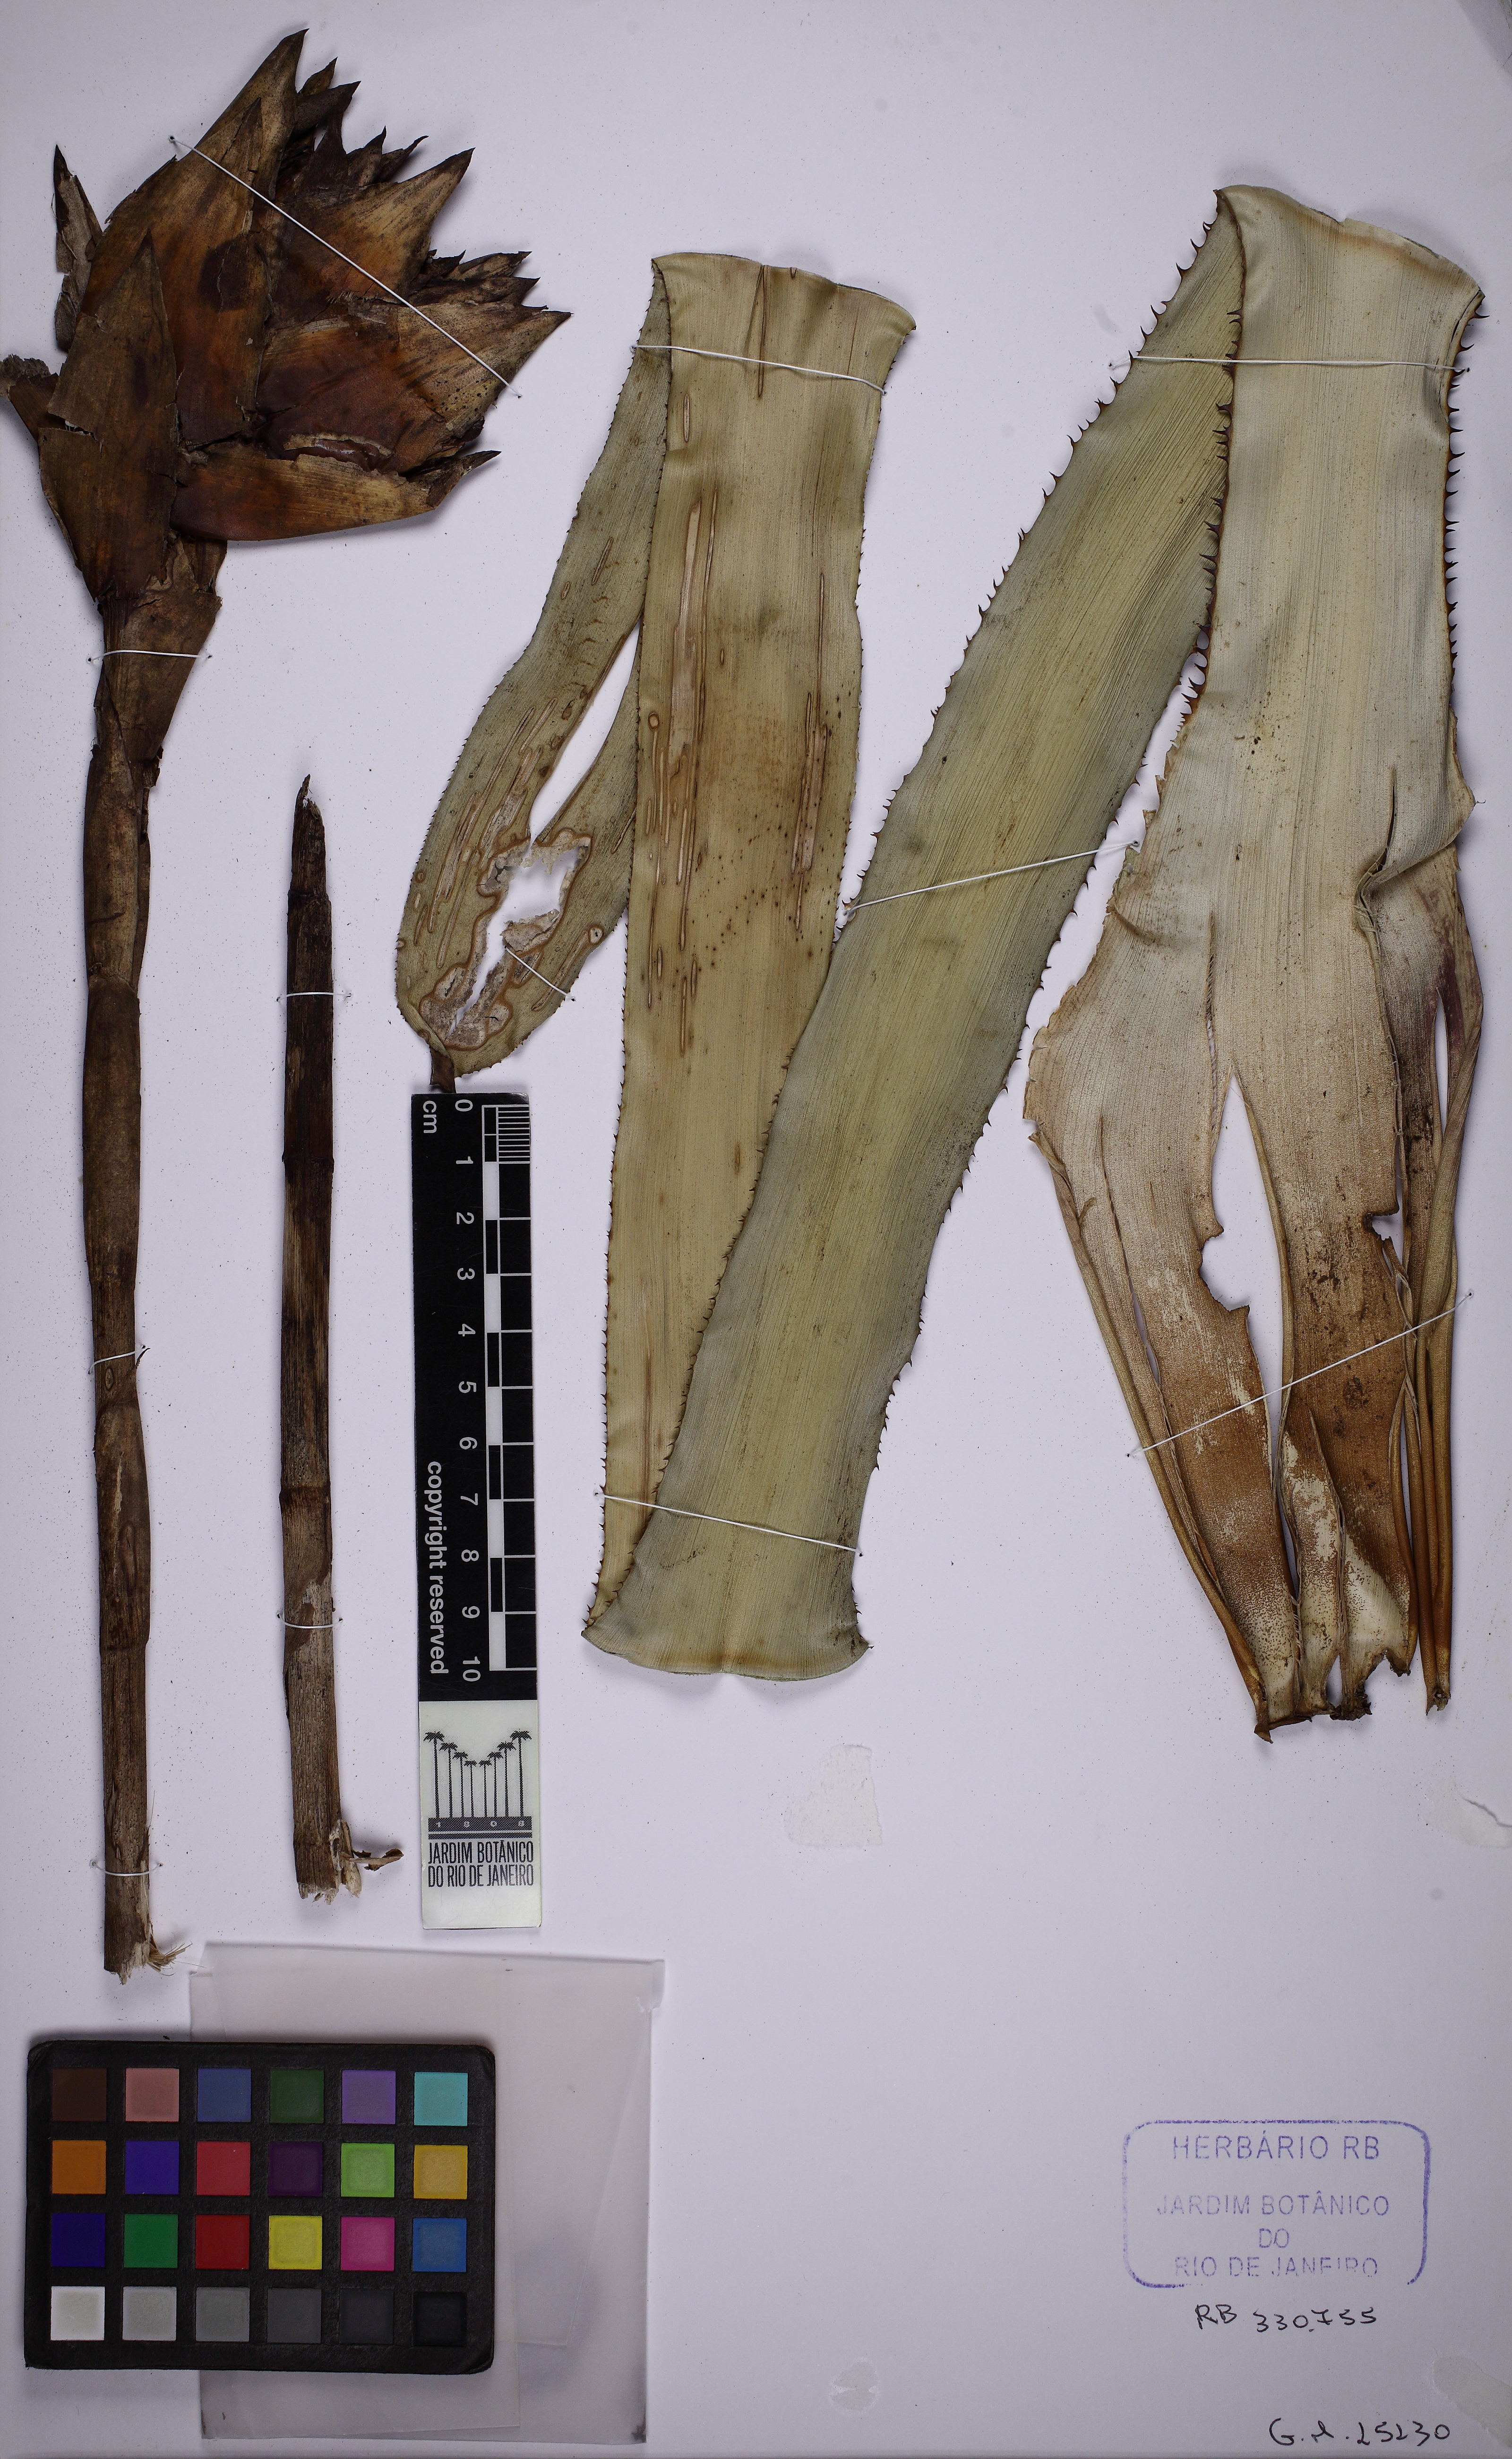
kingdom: Plantae
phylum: Tracheophyta
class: Liliopsida
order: Poales
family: Bromeliaceae
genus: Canistrum
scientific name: Canistrum aurantiacum
